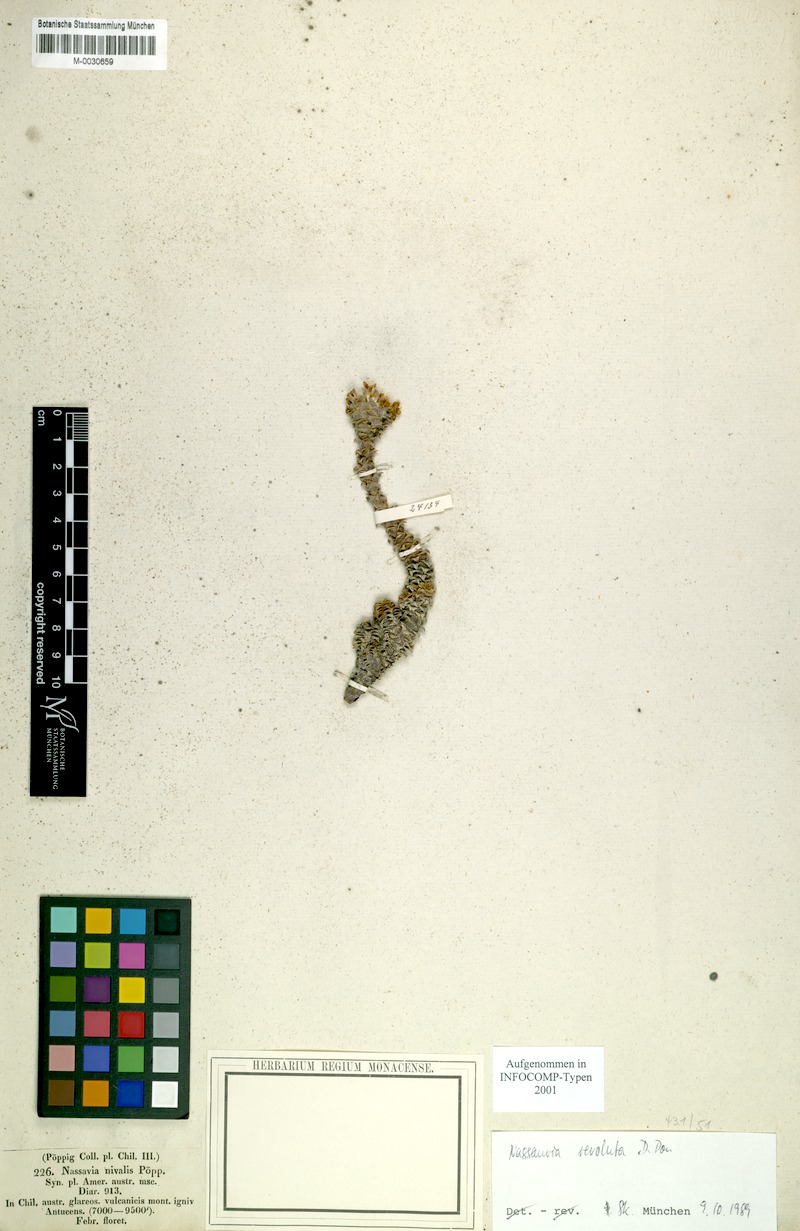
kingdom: Plantae
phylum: Tracheophyta
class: Magnoliopsida
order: Asterales
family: Asteraceae
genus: Nassauvia
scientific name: Nassauvia revoluta
